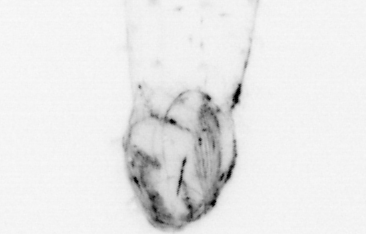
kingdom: Animalia
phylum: Chaetognatha
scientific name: Chaetognatha
